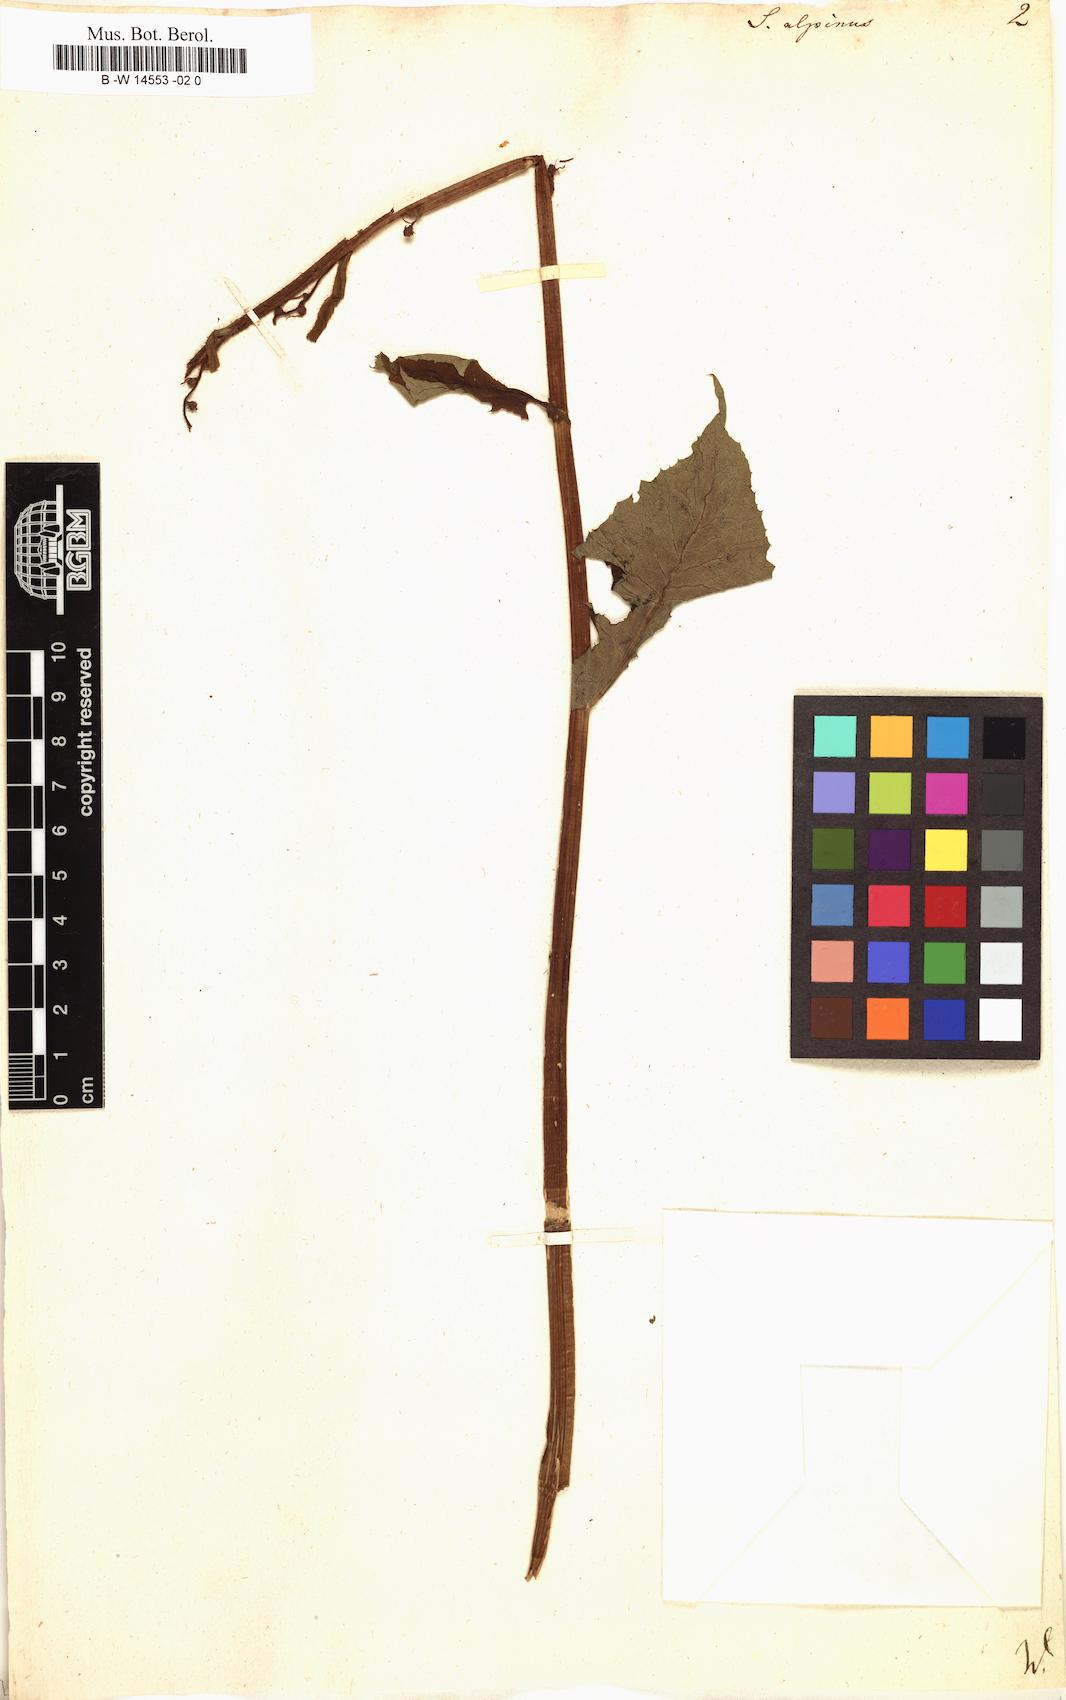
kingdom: Plantae
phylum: Tracheophyta
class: Magnoliopsida
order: Asterales
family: Asteraceae
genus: Cicerbita
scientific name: Cicerbita alpina
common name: Alpine blue-sow-thistle
